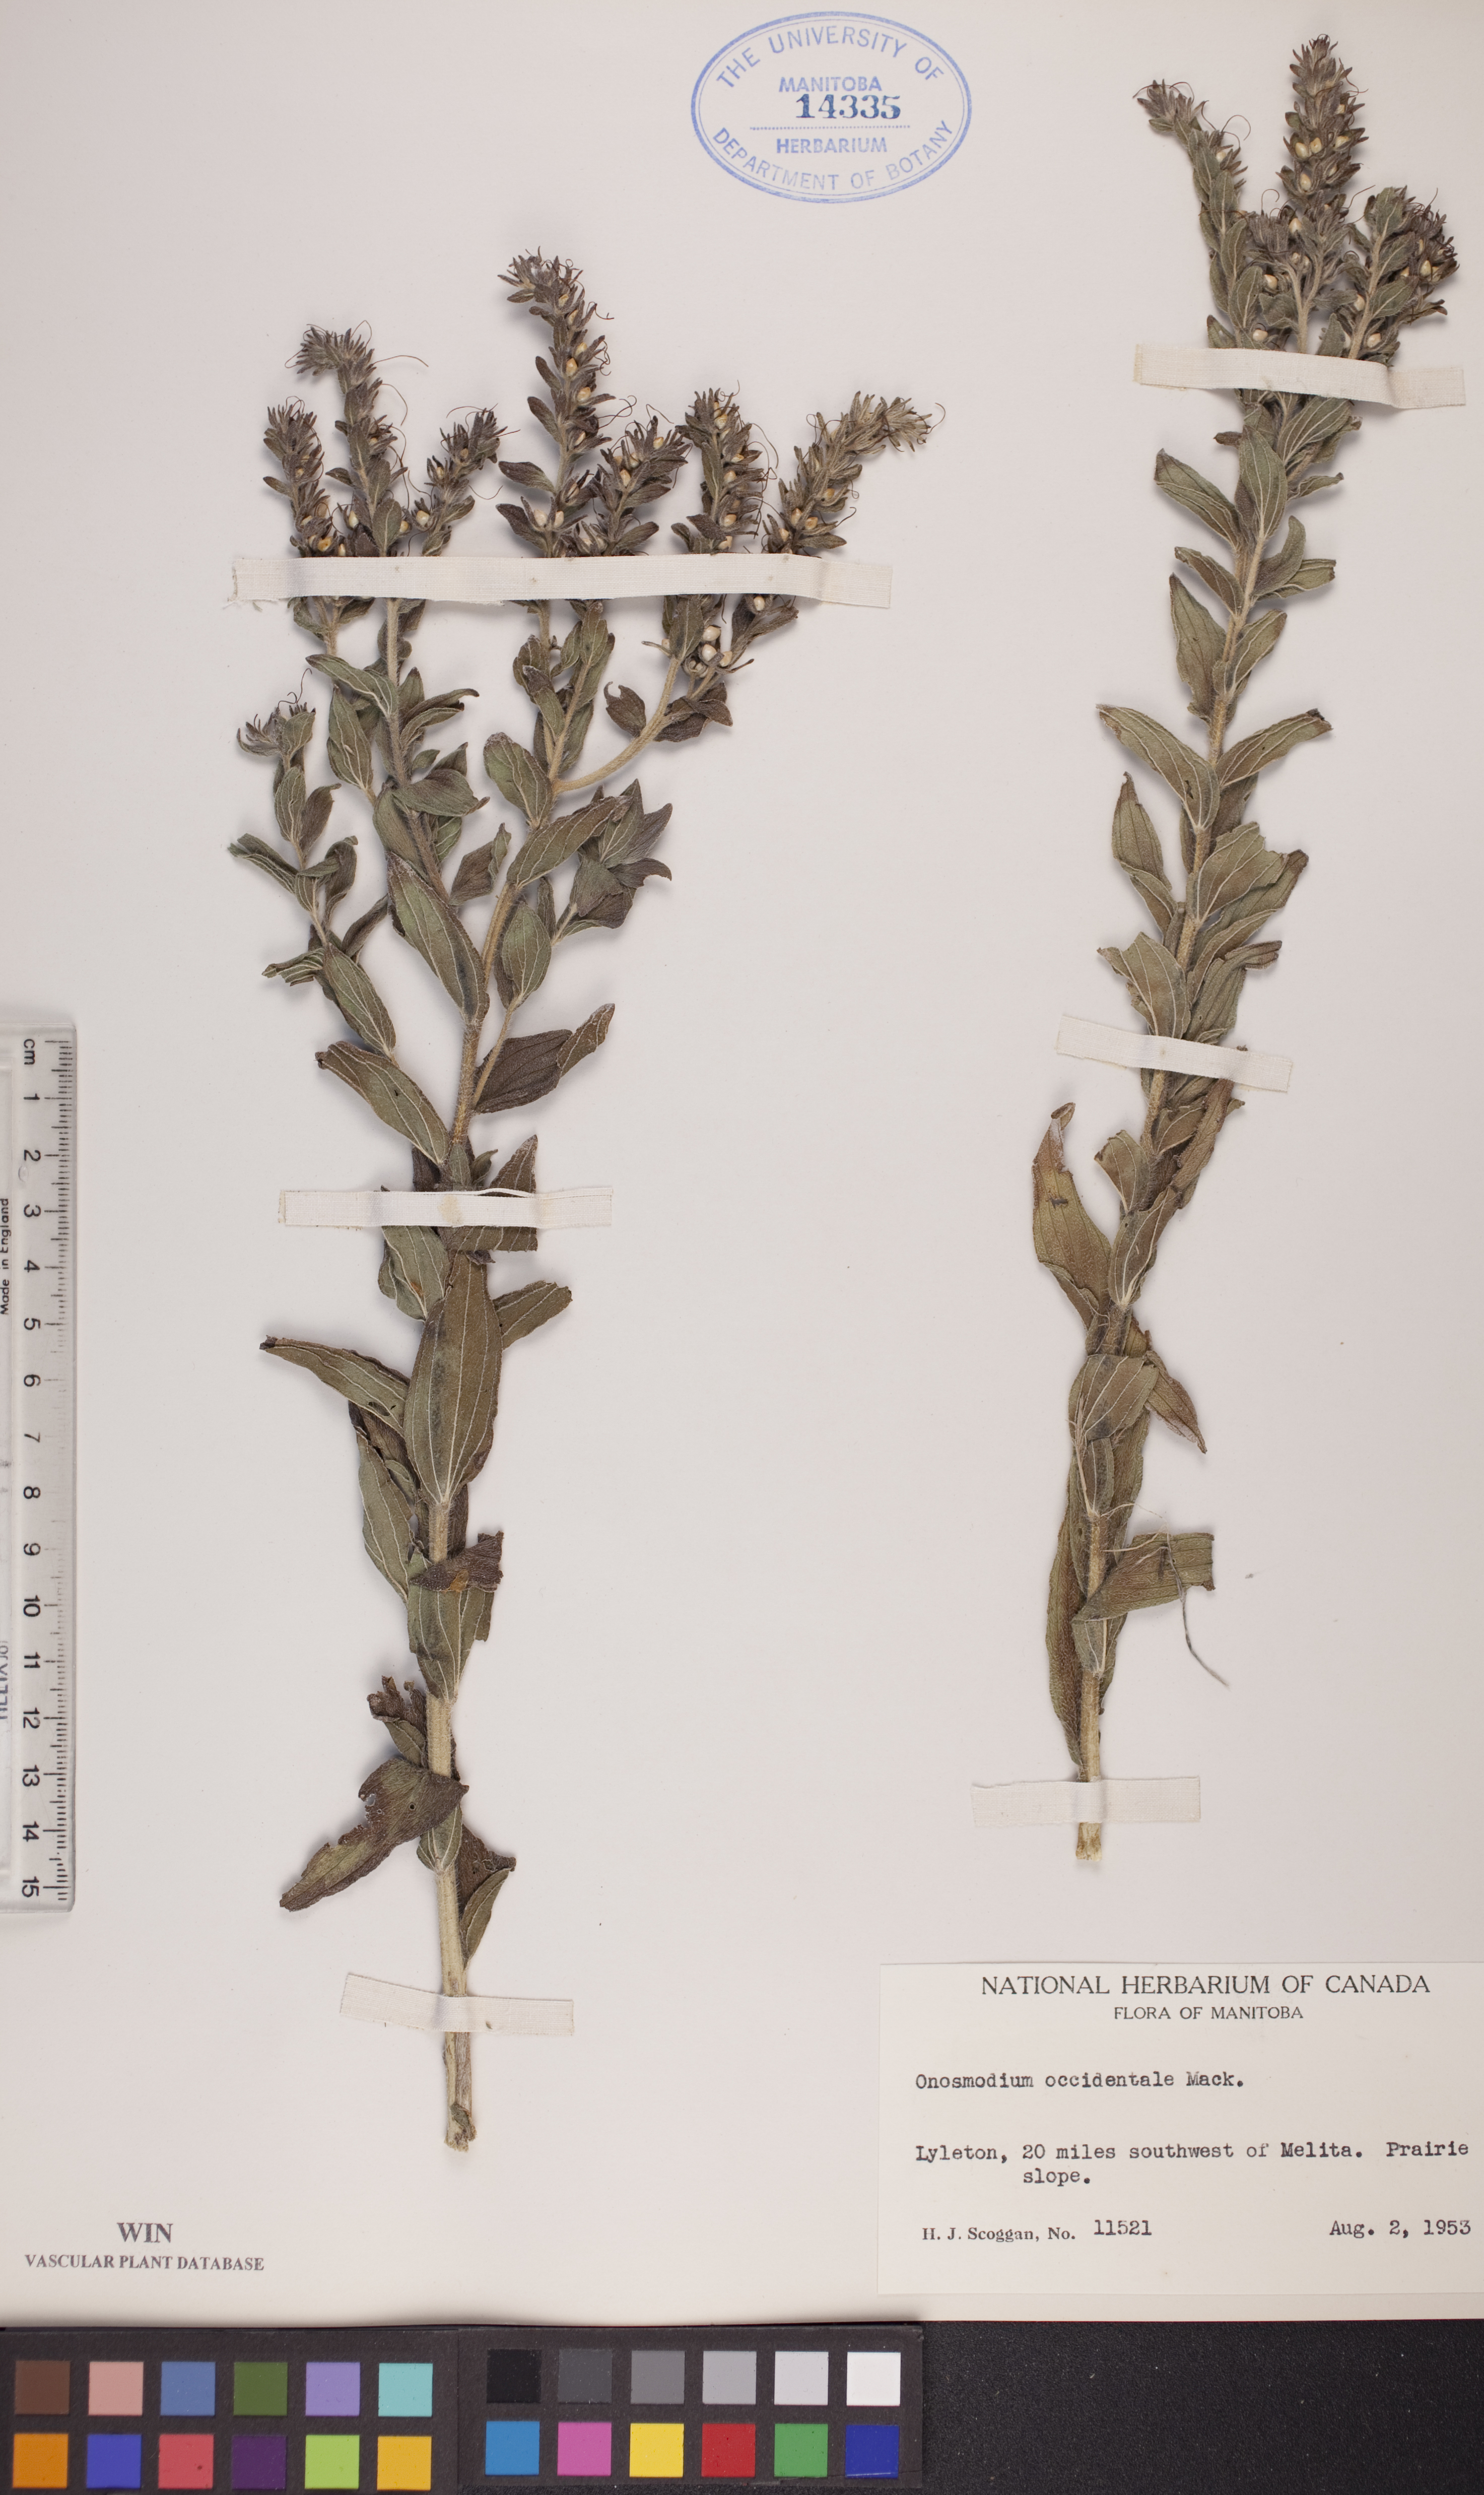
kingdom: Plantae
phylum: Tracheophyta
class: Magnoliopsida
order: Boraginales
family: Boraginaceae
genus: Lithospermum
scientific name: Lithospermum occidentale
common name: Western false gromwell
